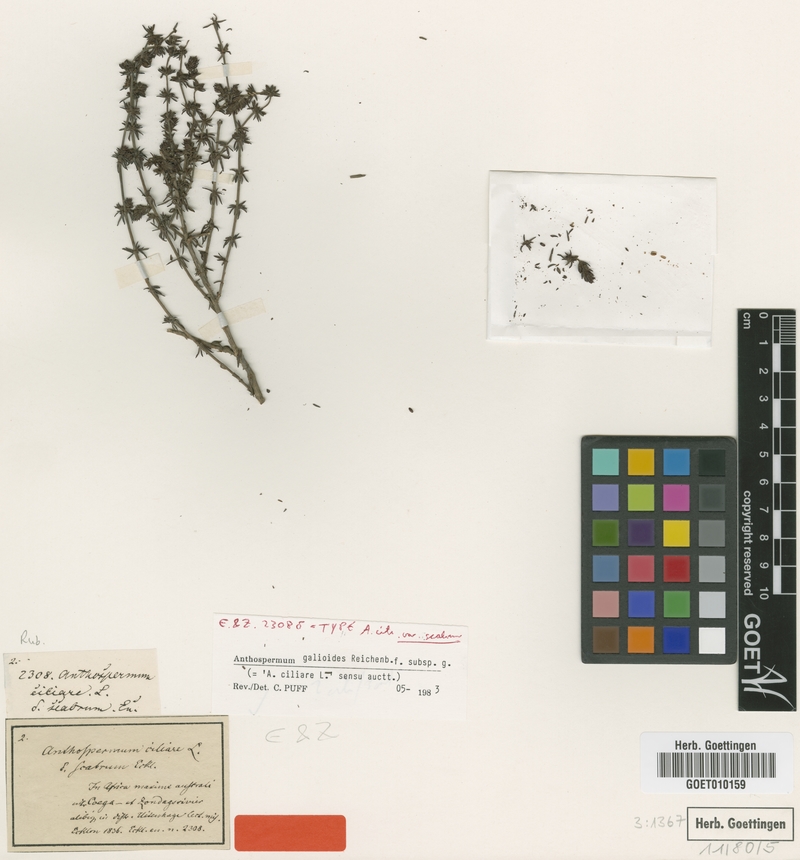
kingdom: Plantae
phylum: Tracheophyta
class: Magnoliopsida
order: Gentianales
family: Rubiaceae
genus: Anthospermum
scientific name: Anthospermum galioides
